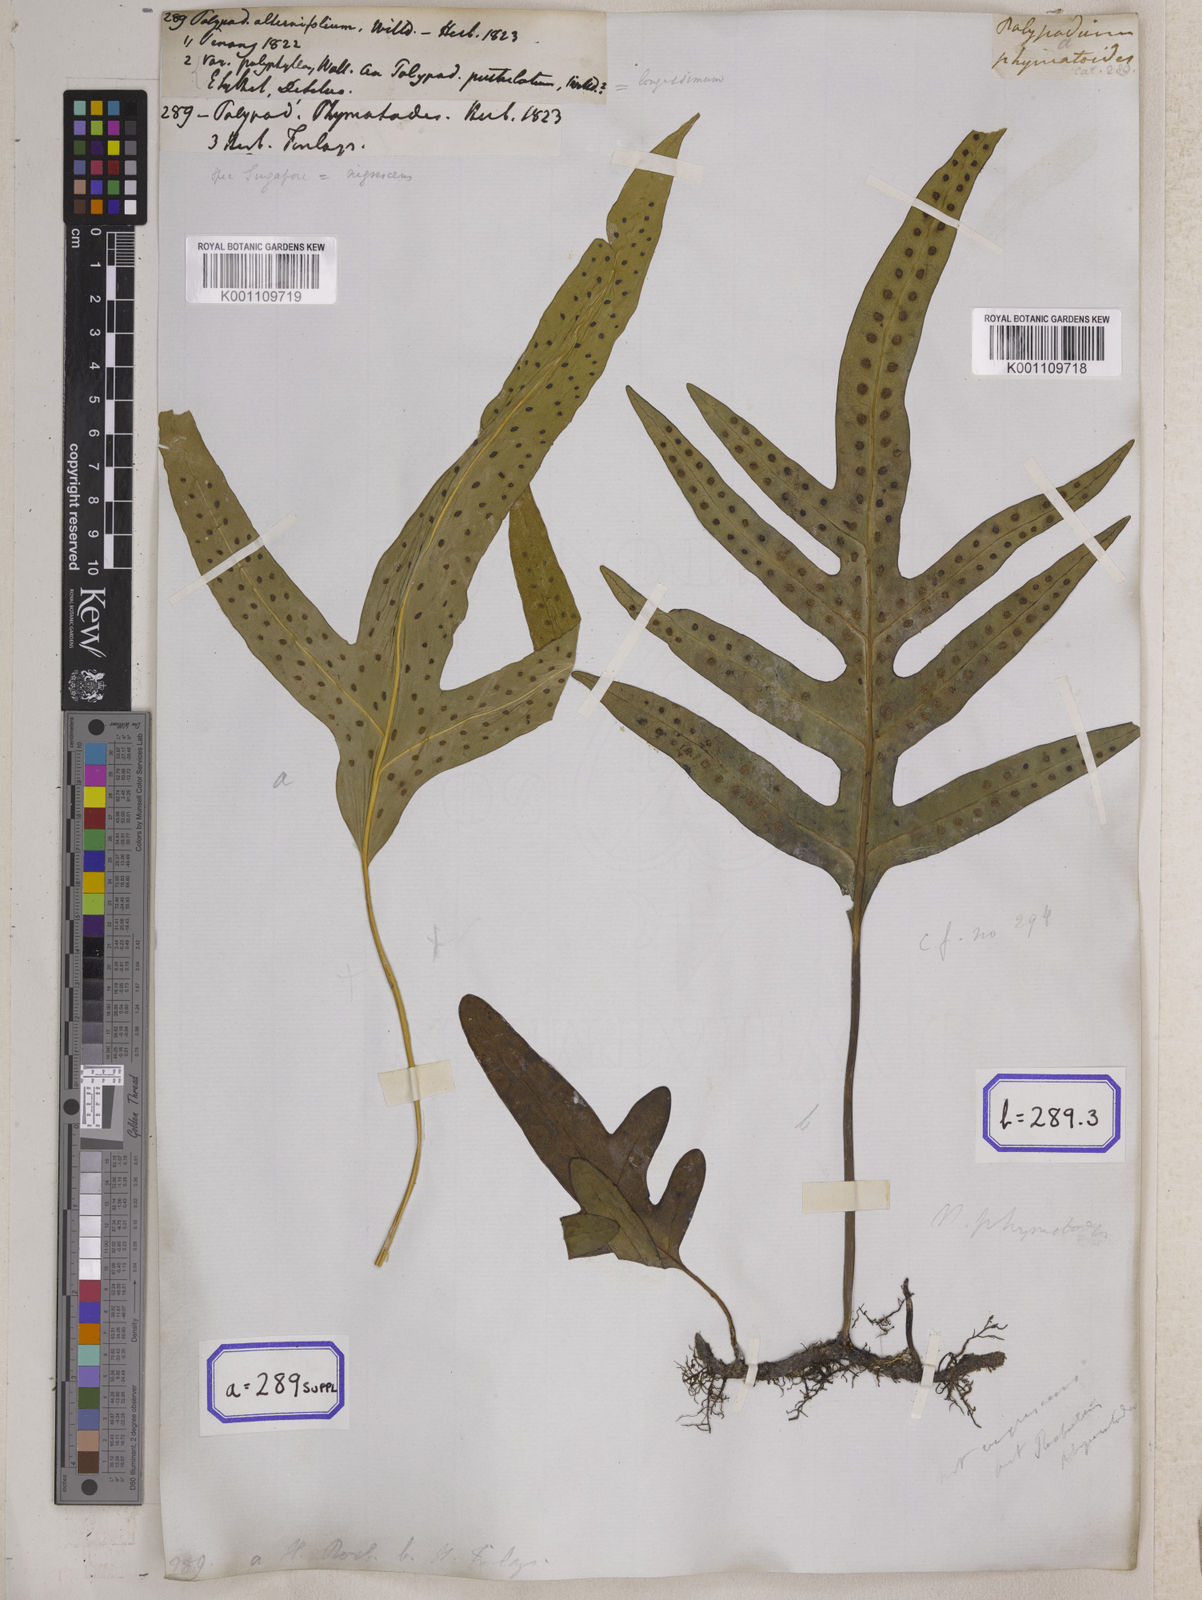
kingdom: Plantae
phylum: Tracheophyta
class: Polypodiopsida
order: Polypodiales
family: Polypodiaceae
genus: Microsorum
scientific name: Microsorum scolopendria
